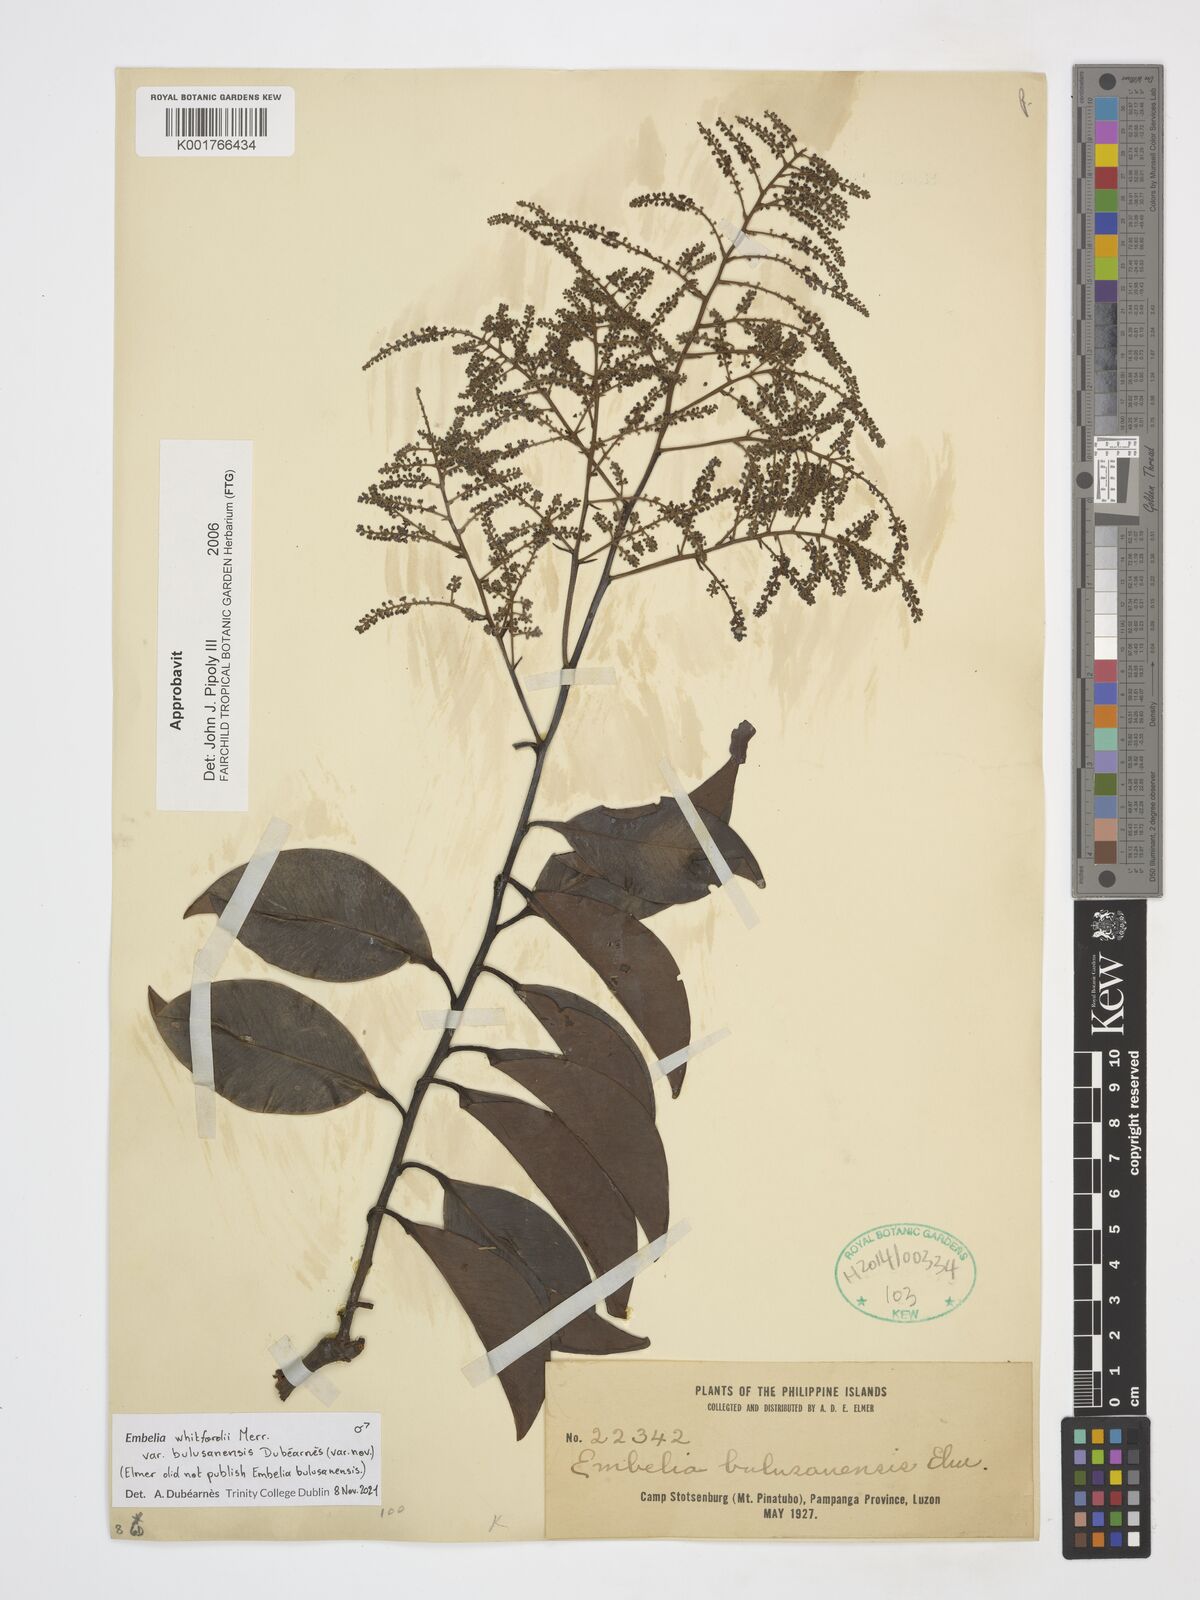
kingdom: Plantae
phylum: Tracheophyta
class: Magnoliopsida
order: Ericales
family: Primulaceae
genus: Embelia
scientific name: Embelia whitfordii
